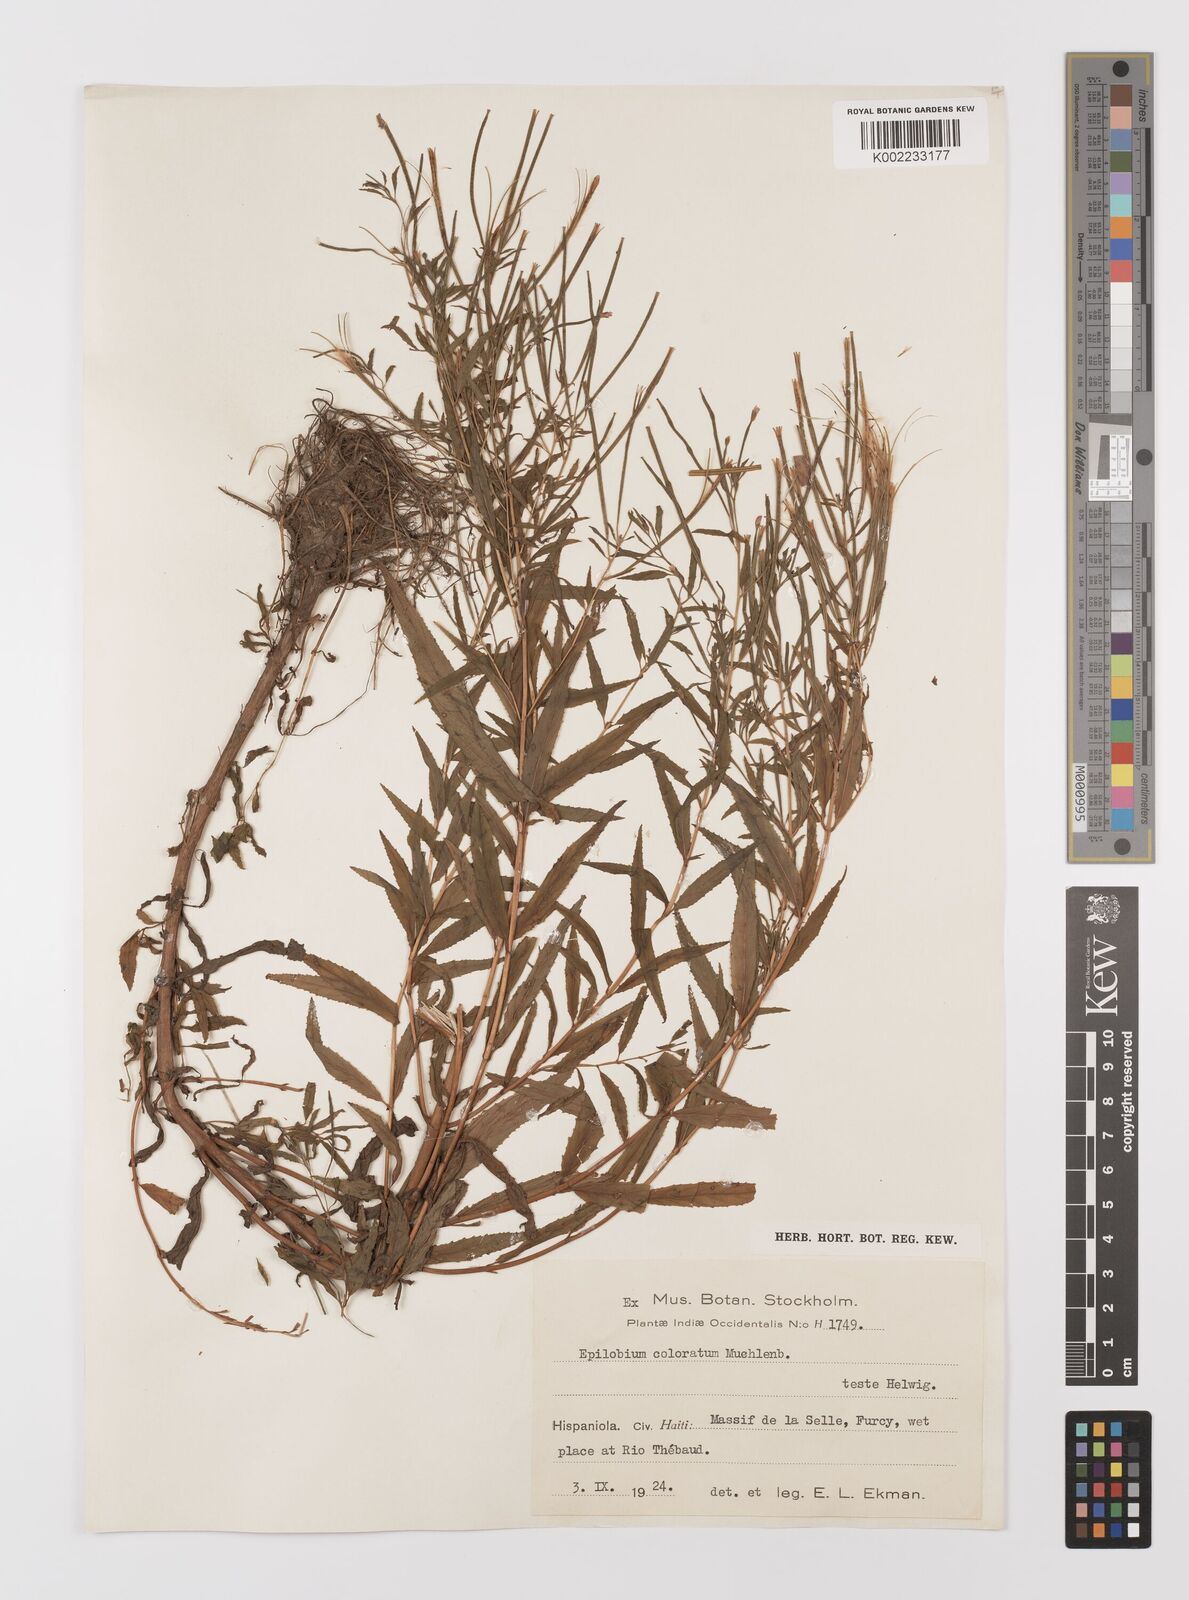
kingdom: Plantae
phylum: Tracheophyta
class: Magnoliopsida
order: Myrtales
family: Onagraceae
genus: Epilobium
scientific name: Epilobium coloratum
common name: Bronze willowherb
